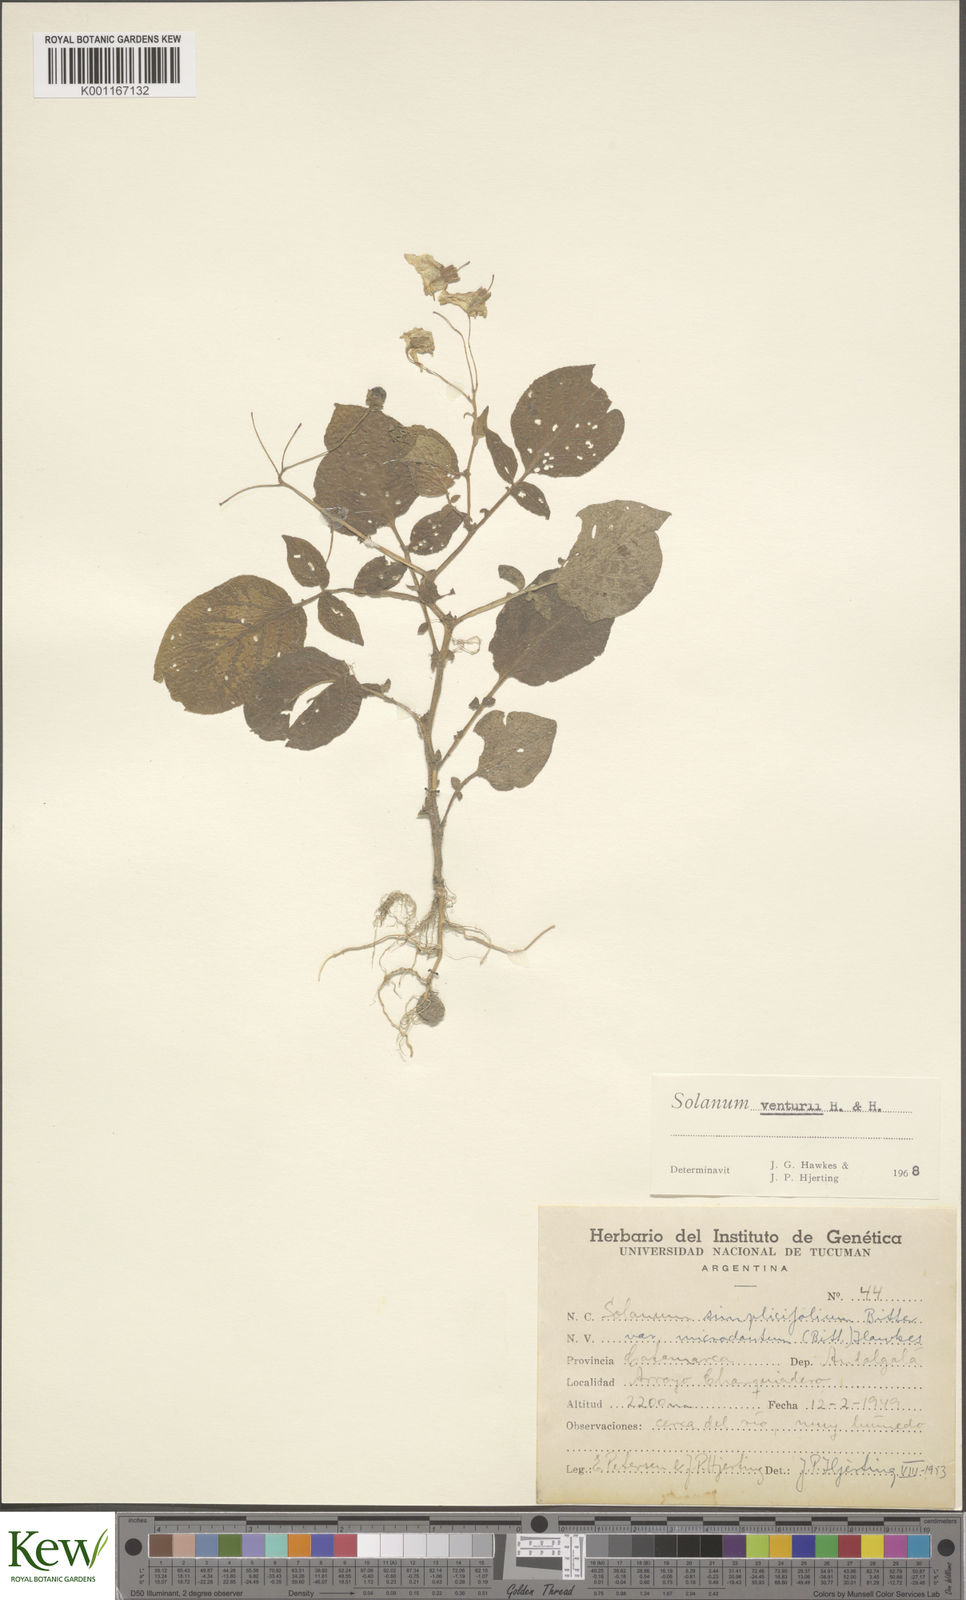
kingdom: Plantae
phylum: Tracheophyta
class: Magnoliopsida
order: Solanales
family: Solanaceae
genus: Solanum
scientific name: Solanum venturii
